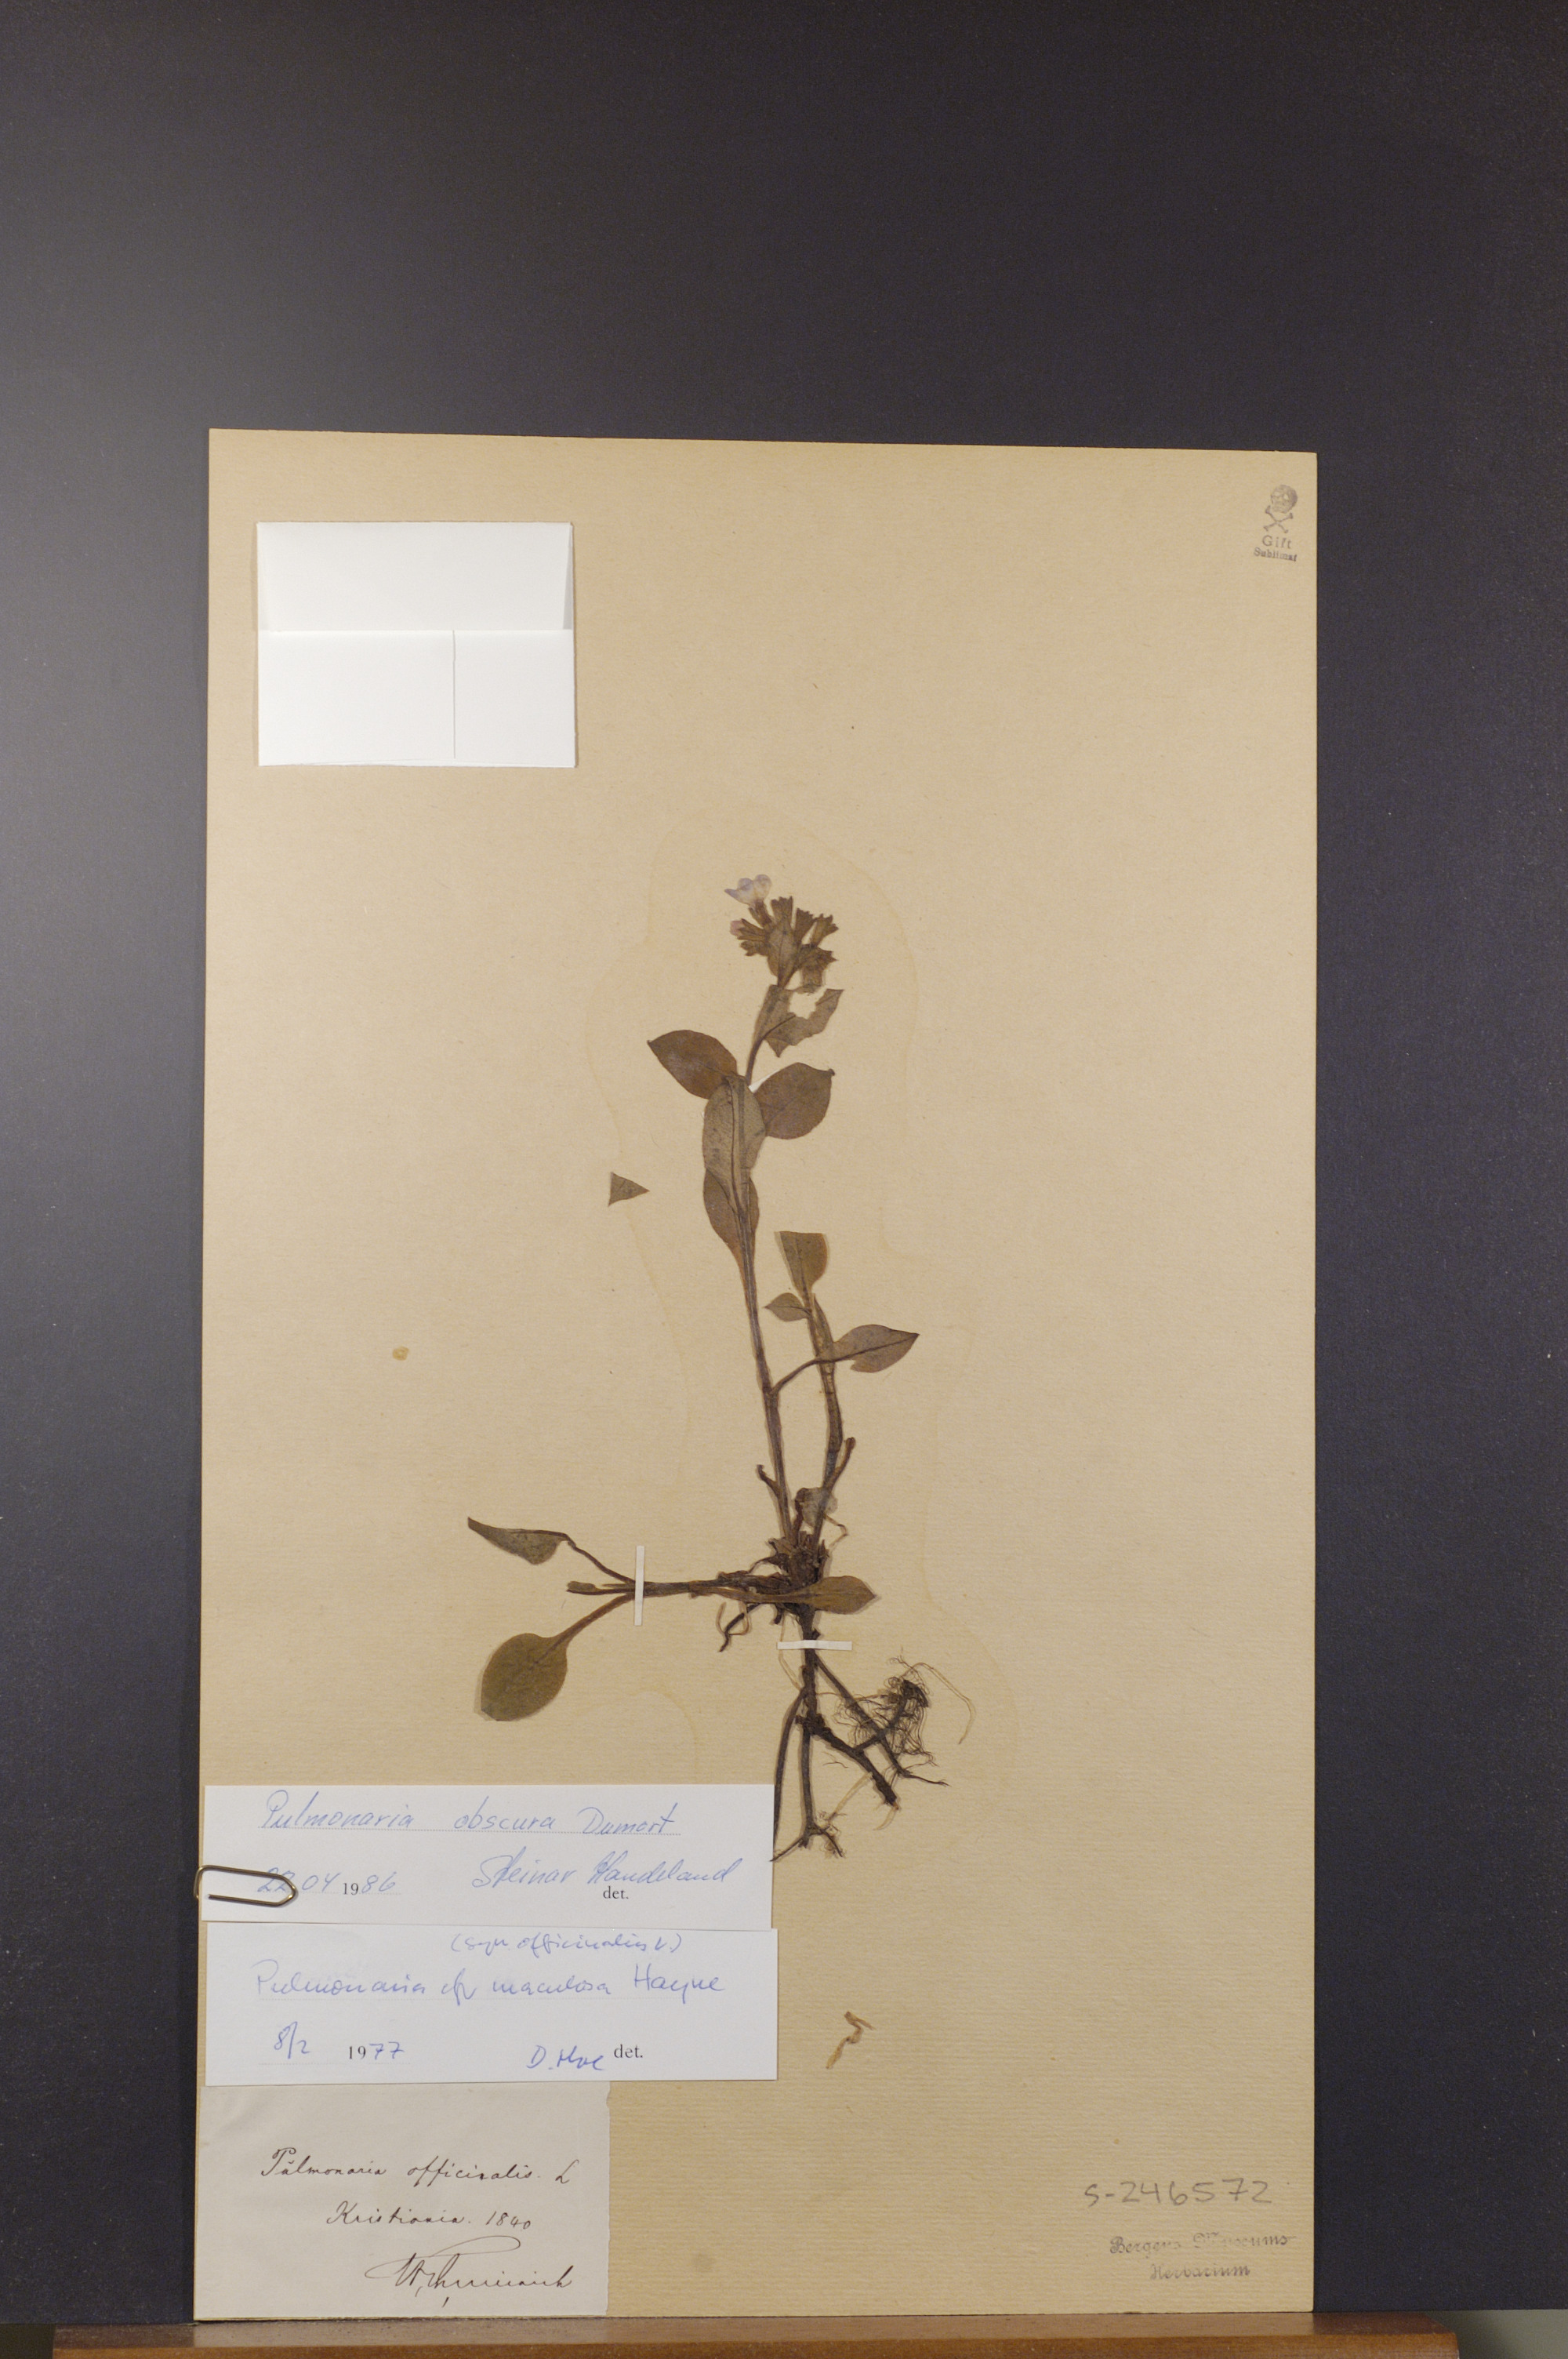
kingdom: Plantae
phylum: Tracheophyta
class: Magnoliopsida
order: Boraginales
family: Boraginaceae
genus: Pulmonaria
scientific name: Pulmonaria obscura
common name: Suffolk lungwort
